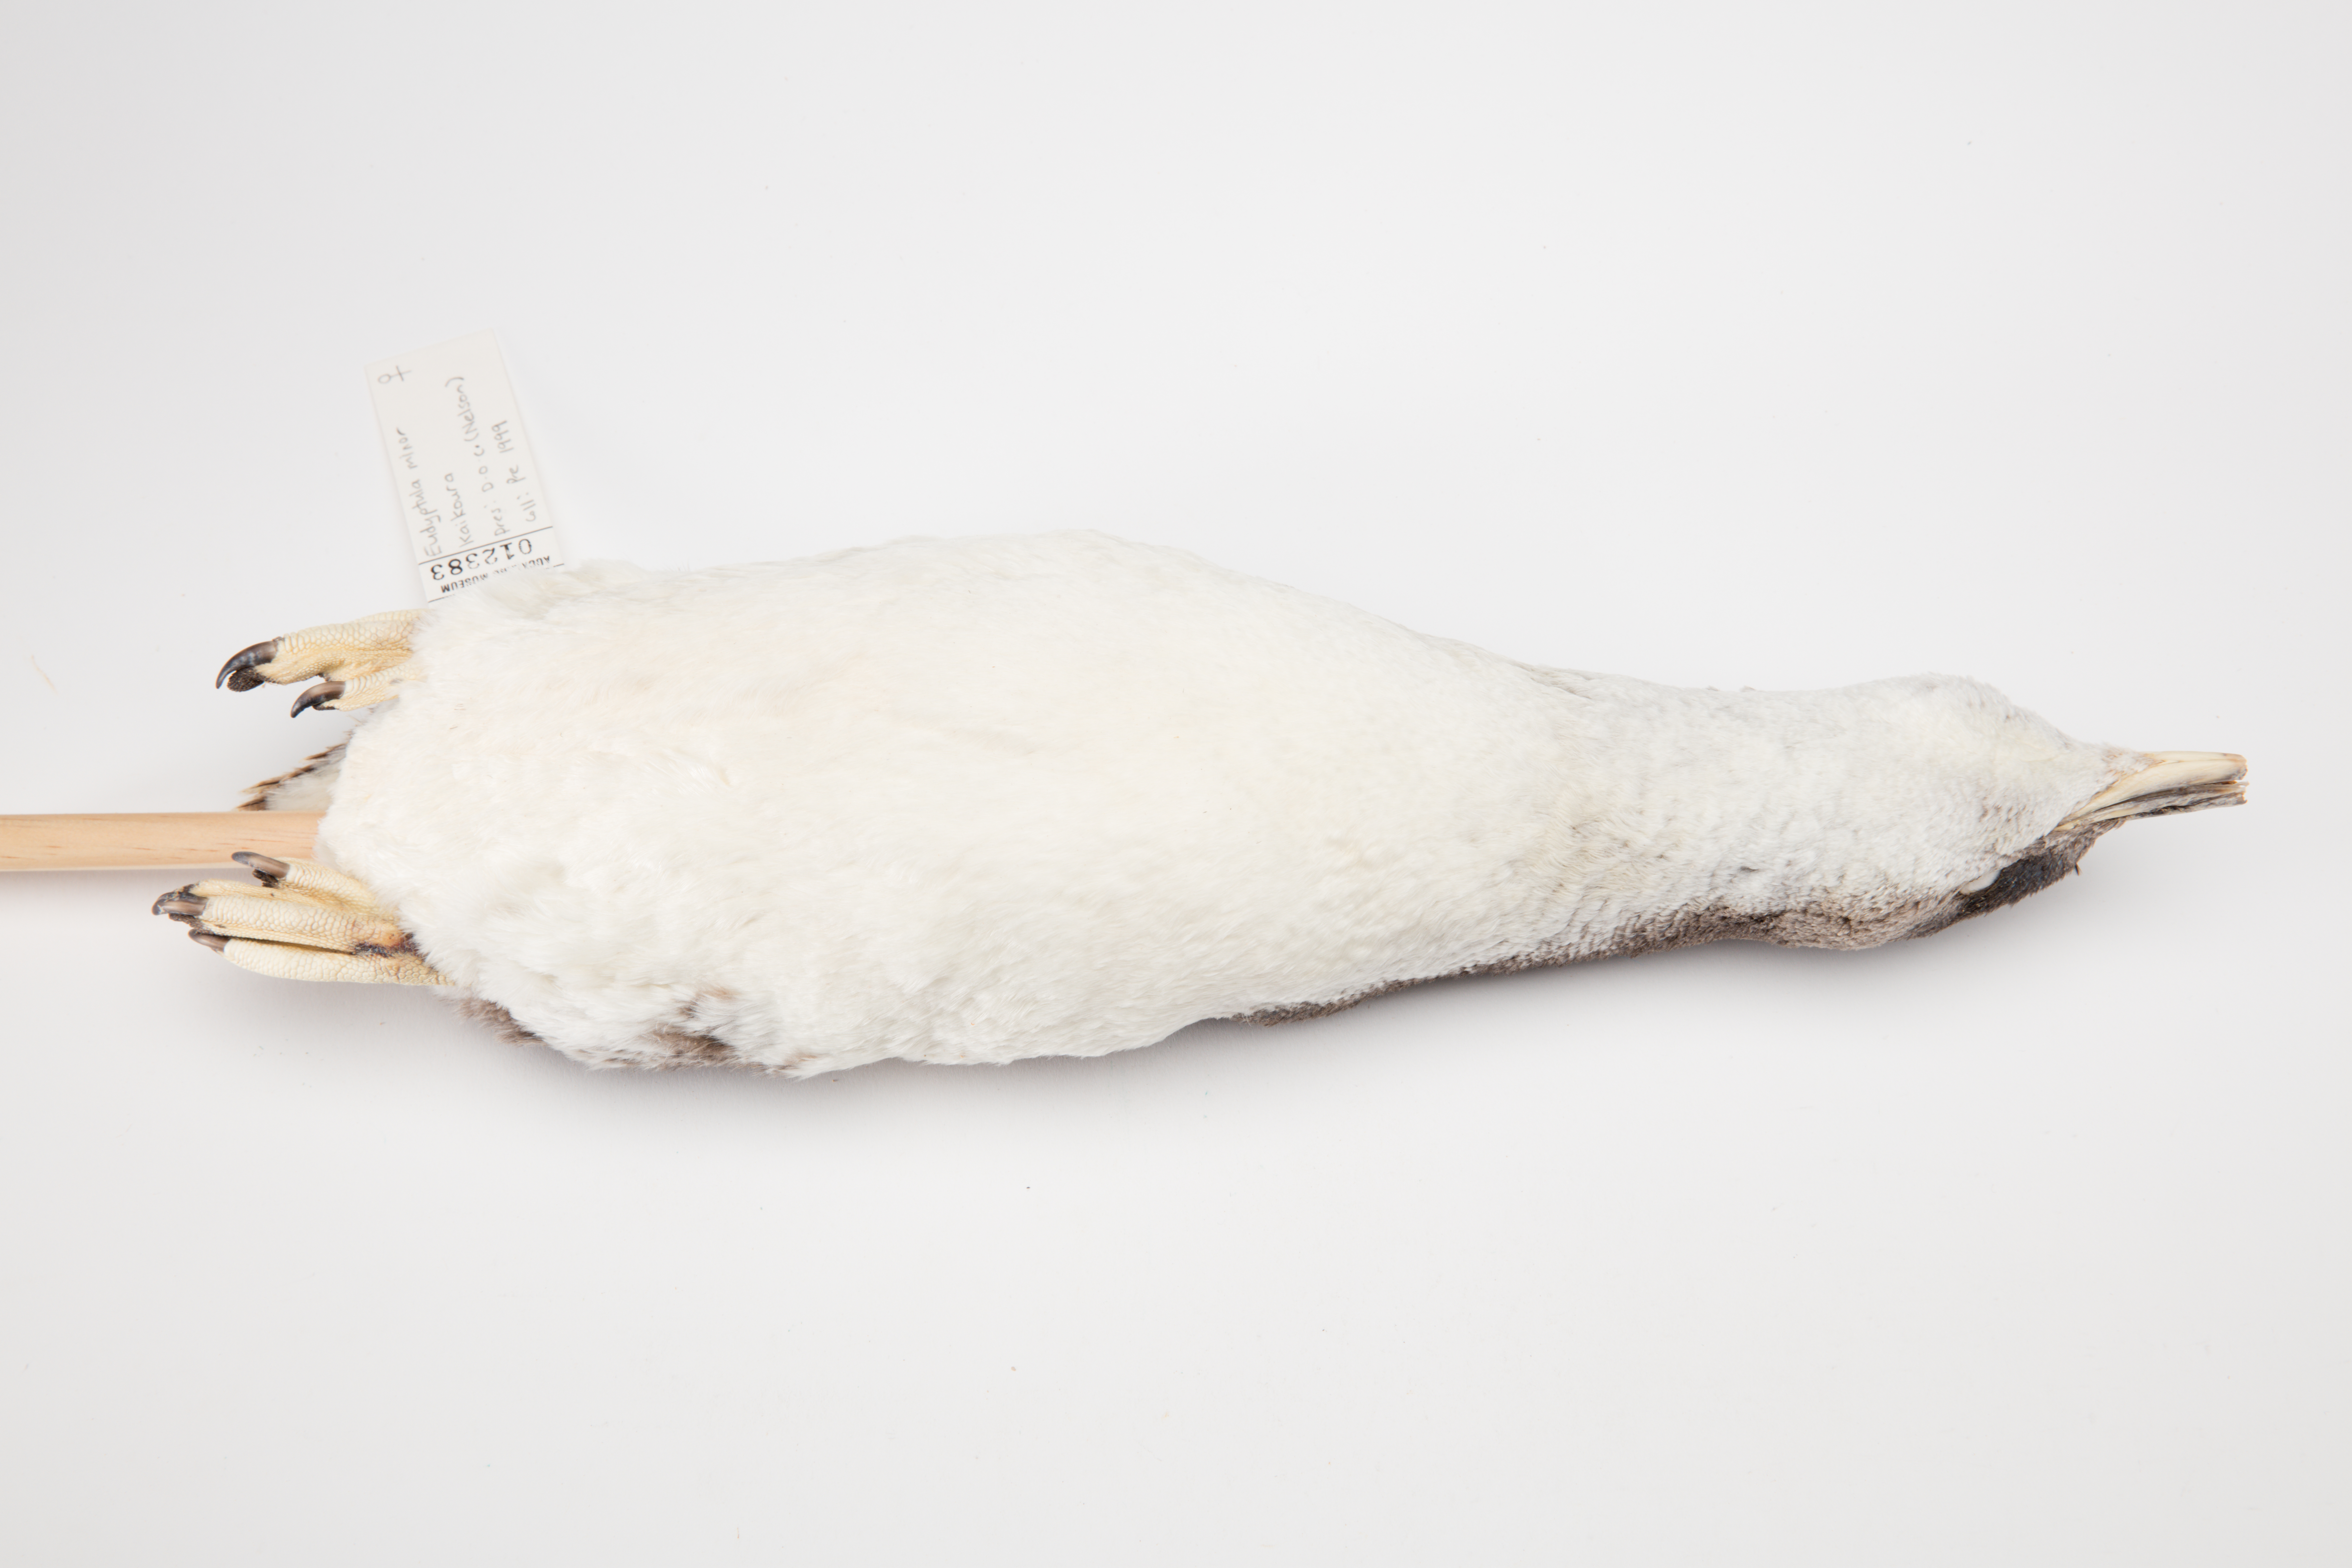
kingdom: Animalia
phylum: Chordata
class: Aves
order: Sphenisciformes
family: Spheniscidae
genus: Eudyptula
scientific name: Eudyptula minor
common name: Little penguin
